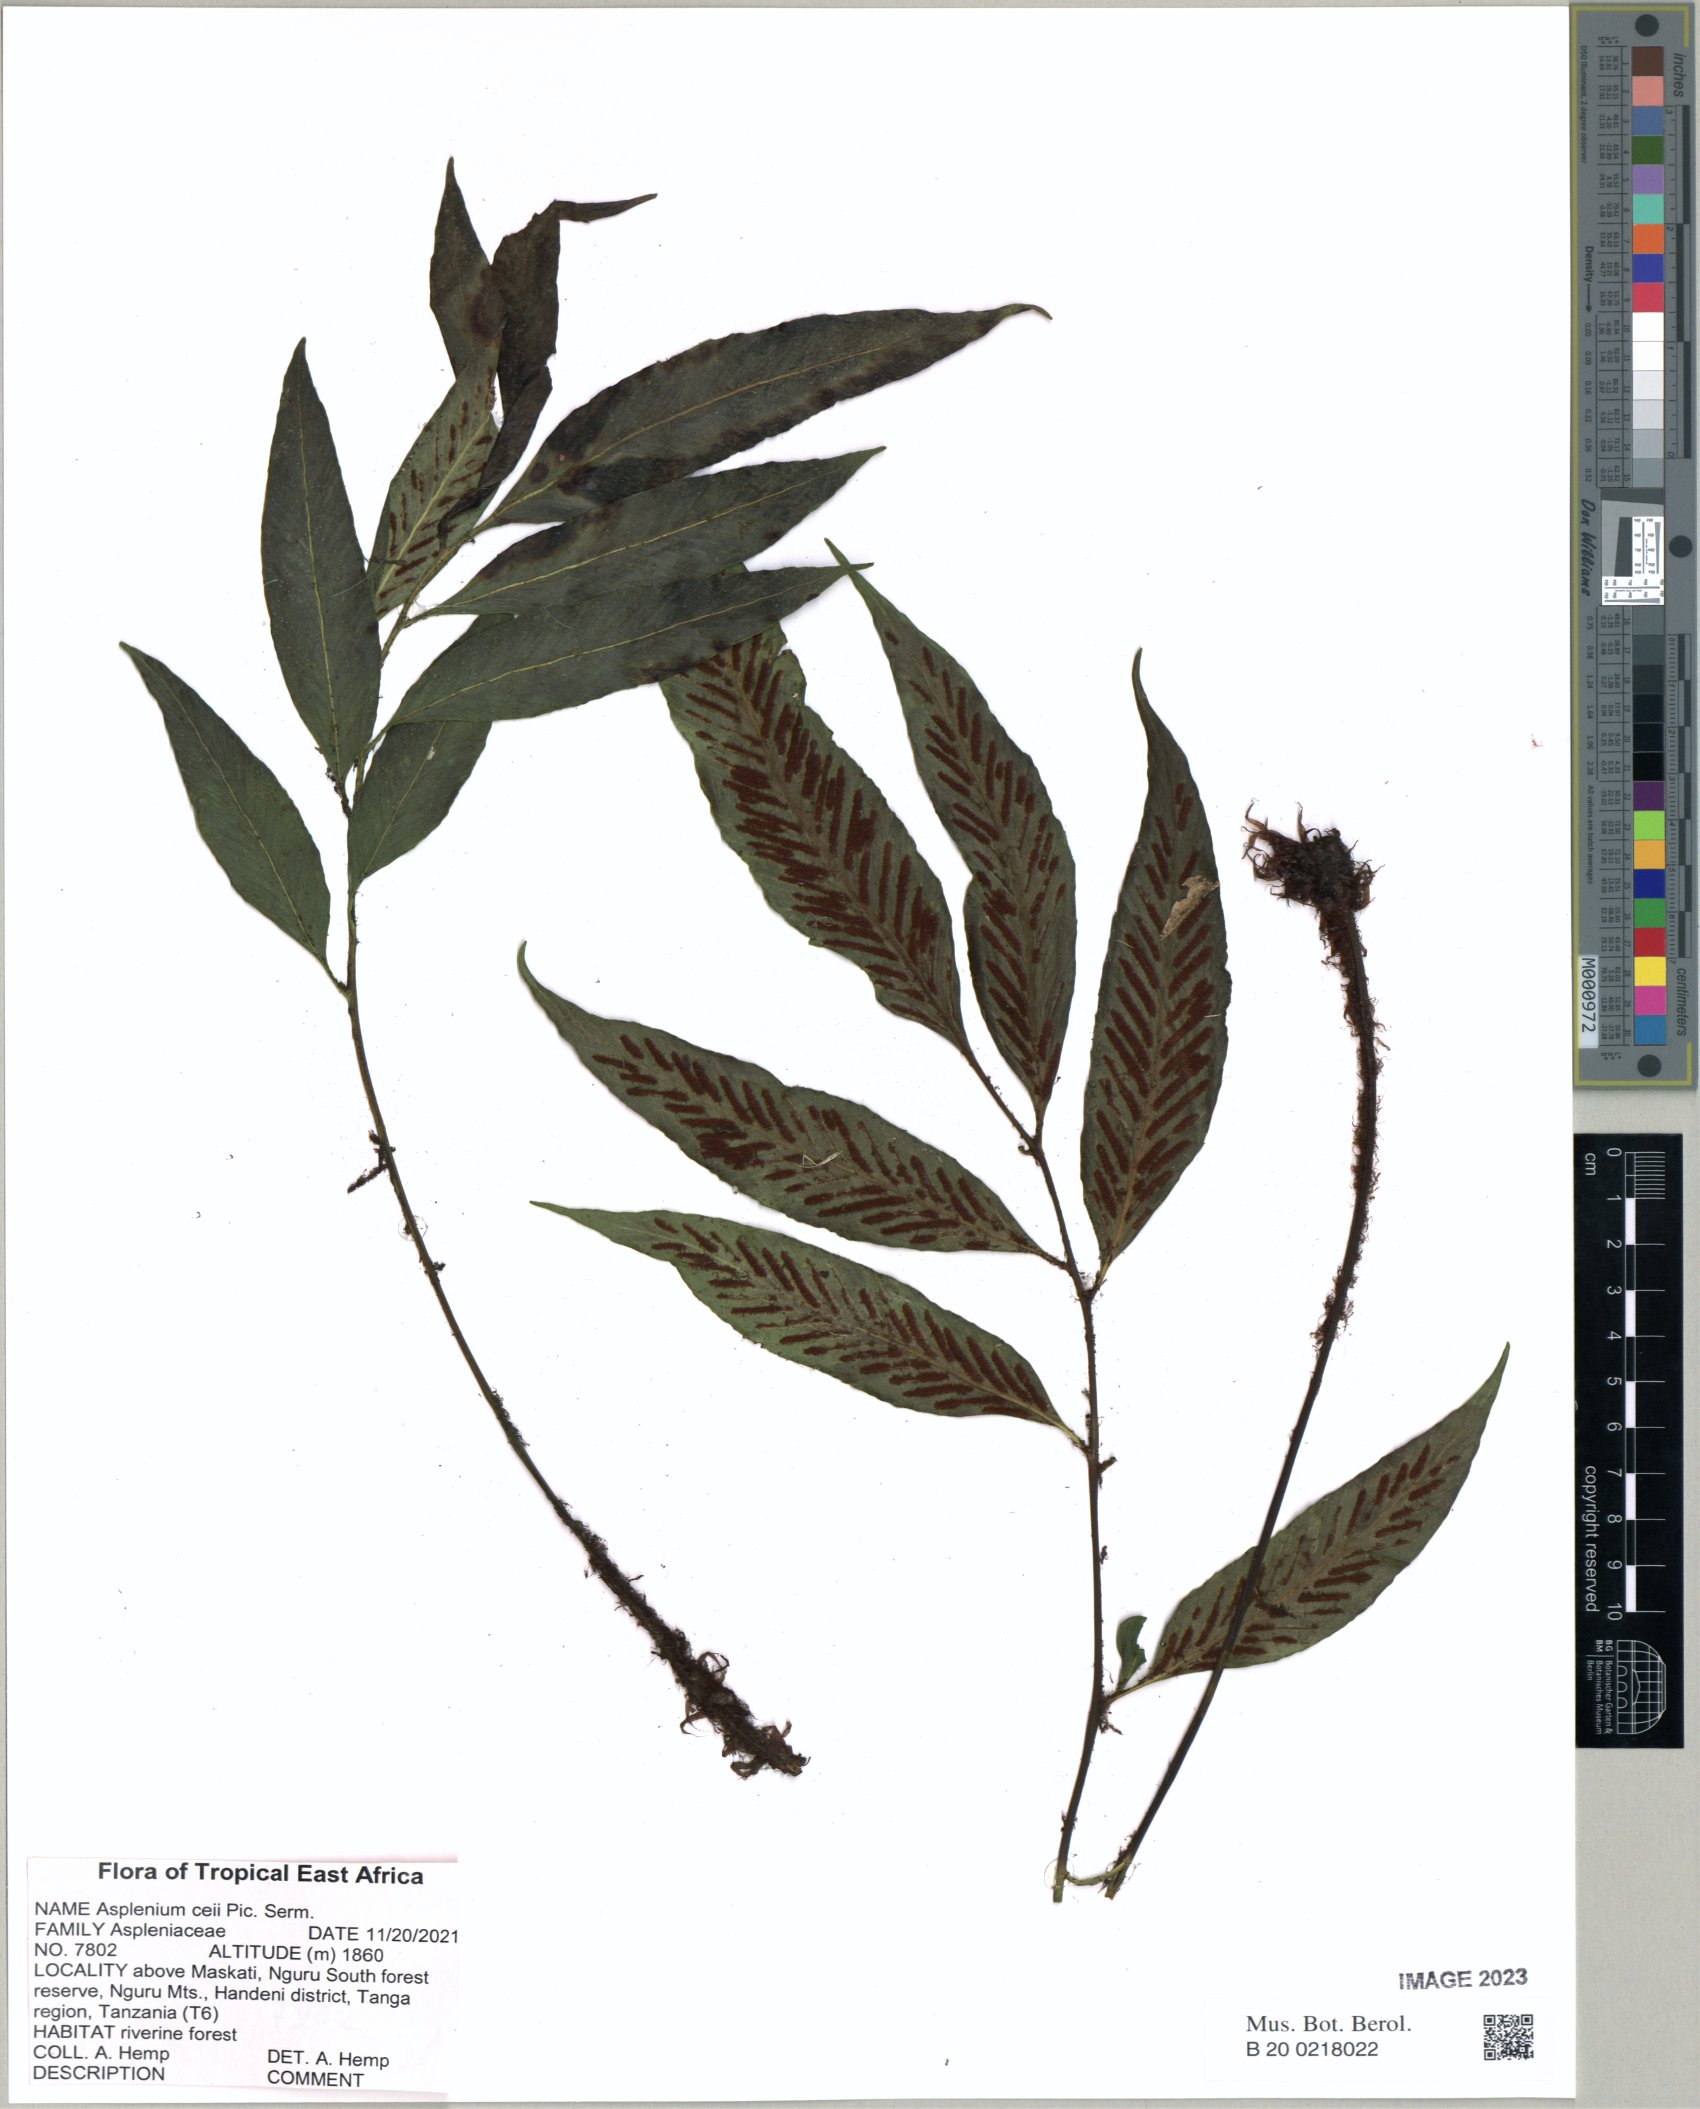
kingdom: Plantae
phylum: Tracheophyta
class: Polypodiopsida
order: Polypodiales
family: Aspleniaceae
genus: Asplenium
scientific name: Asplenium ceii
